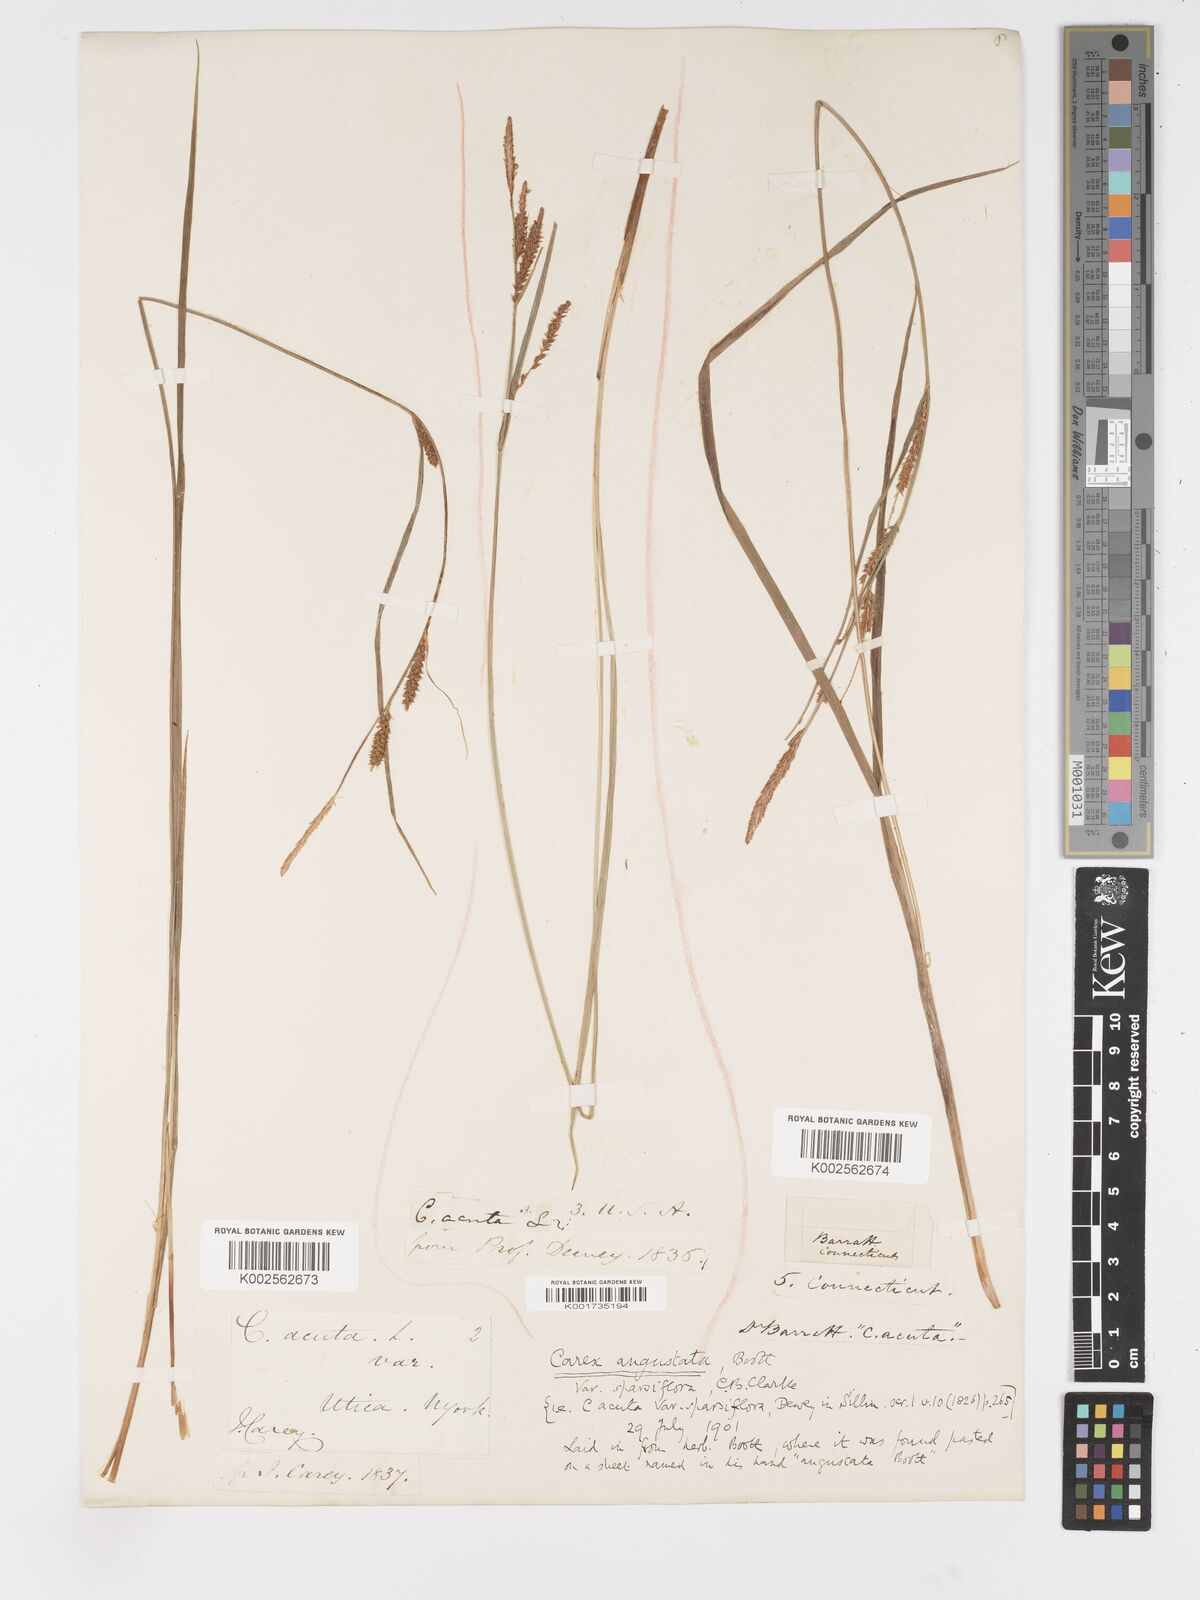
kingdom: Plantae
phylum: Tracheophyta
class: Liliopsida
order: Poales
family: Cyperaceae
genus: Carex
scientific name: Carex stricta
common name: Hummock sedge
